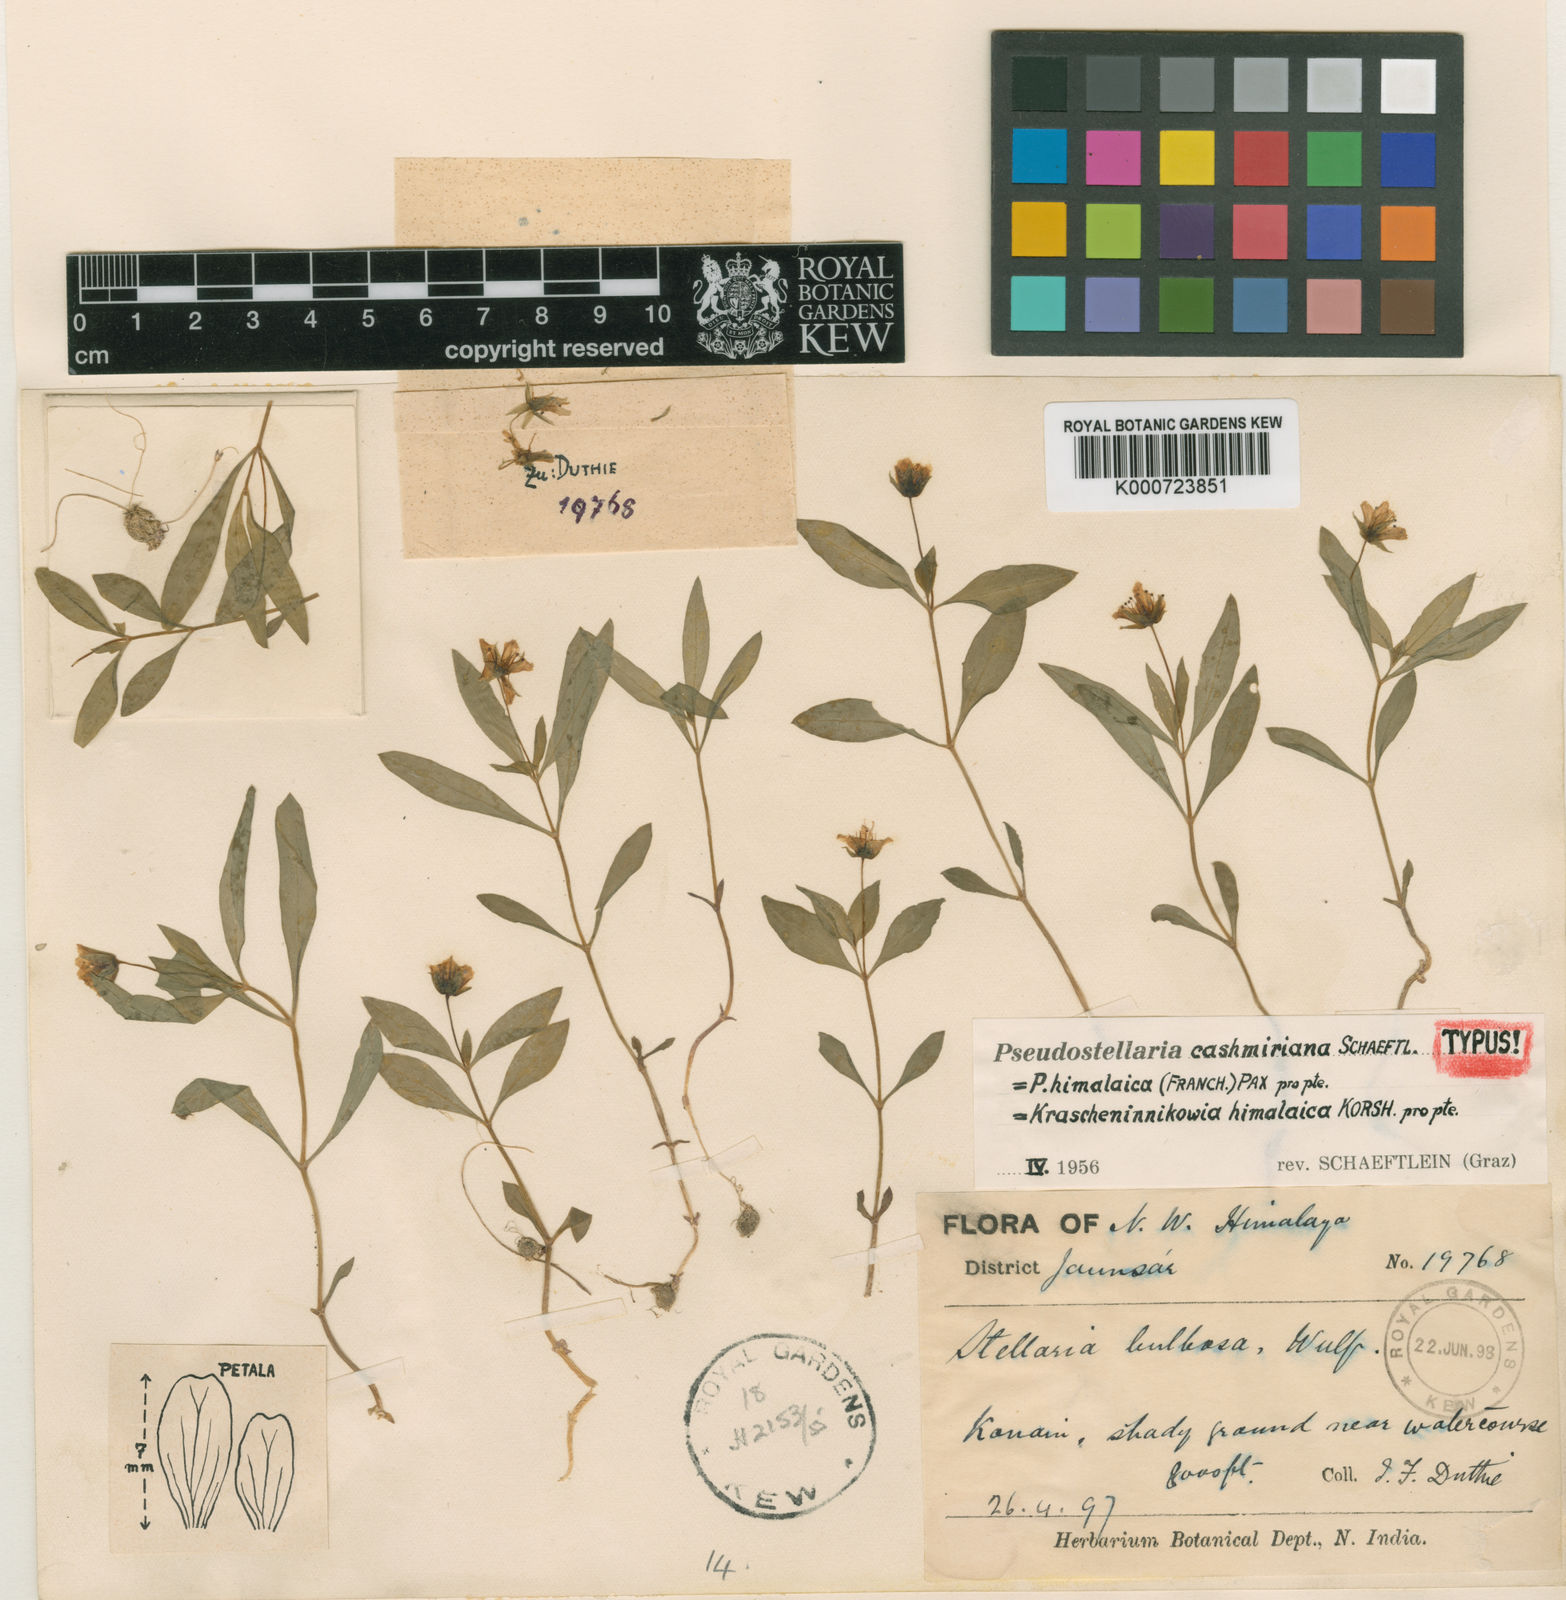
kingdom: Plantae
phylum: Tracheophyta
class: Magnoliopsida
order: Caryophyllales
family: Caryophyllaceae
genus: Pseudostellaria
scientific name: Pseudostellaria himalaica
